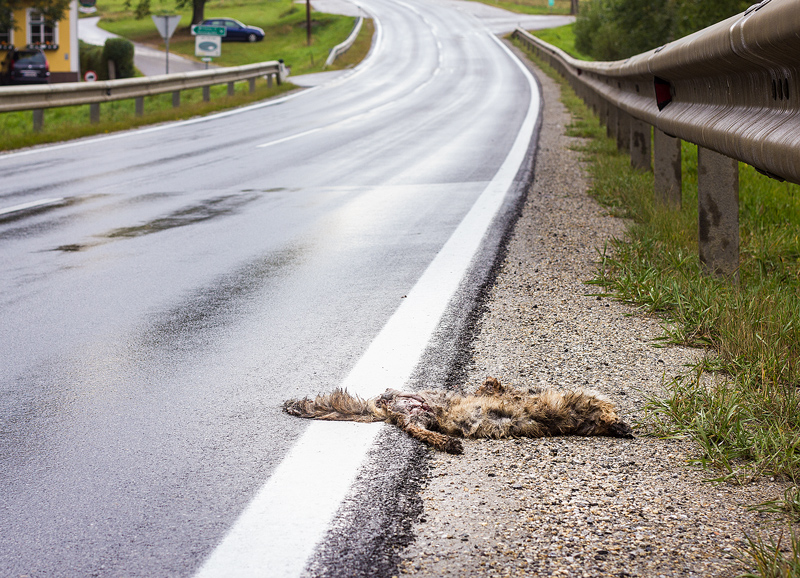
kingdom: Animalia
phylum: Chordata
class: Mammalia
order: Carnivora
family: Canidae
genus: Vulpes
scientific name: Vulpes vulpes
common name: Red fox
